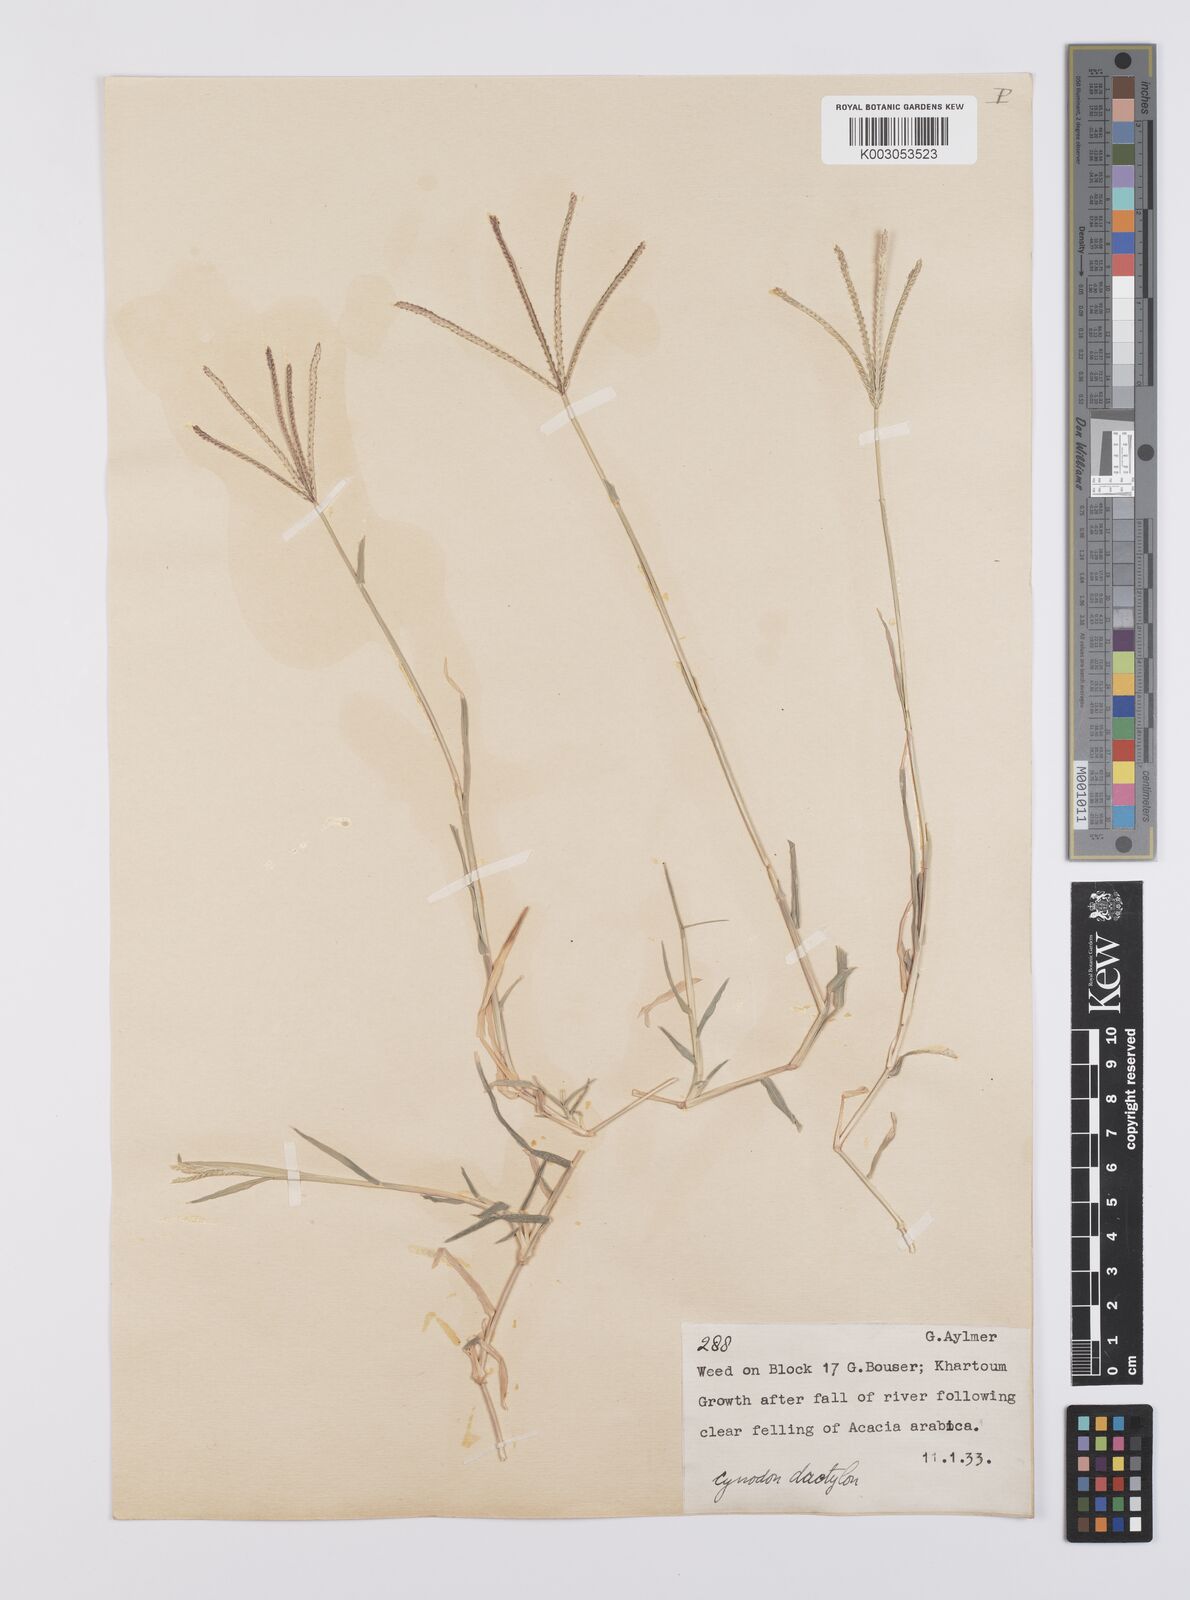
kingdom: Plantae
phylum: Tracheophyta
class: Liliopsida
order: Poales
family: Poaceae
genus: Cynodon
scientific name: Cynodon dactylon
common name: Bermuda grass
